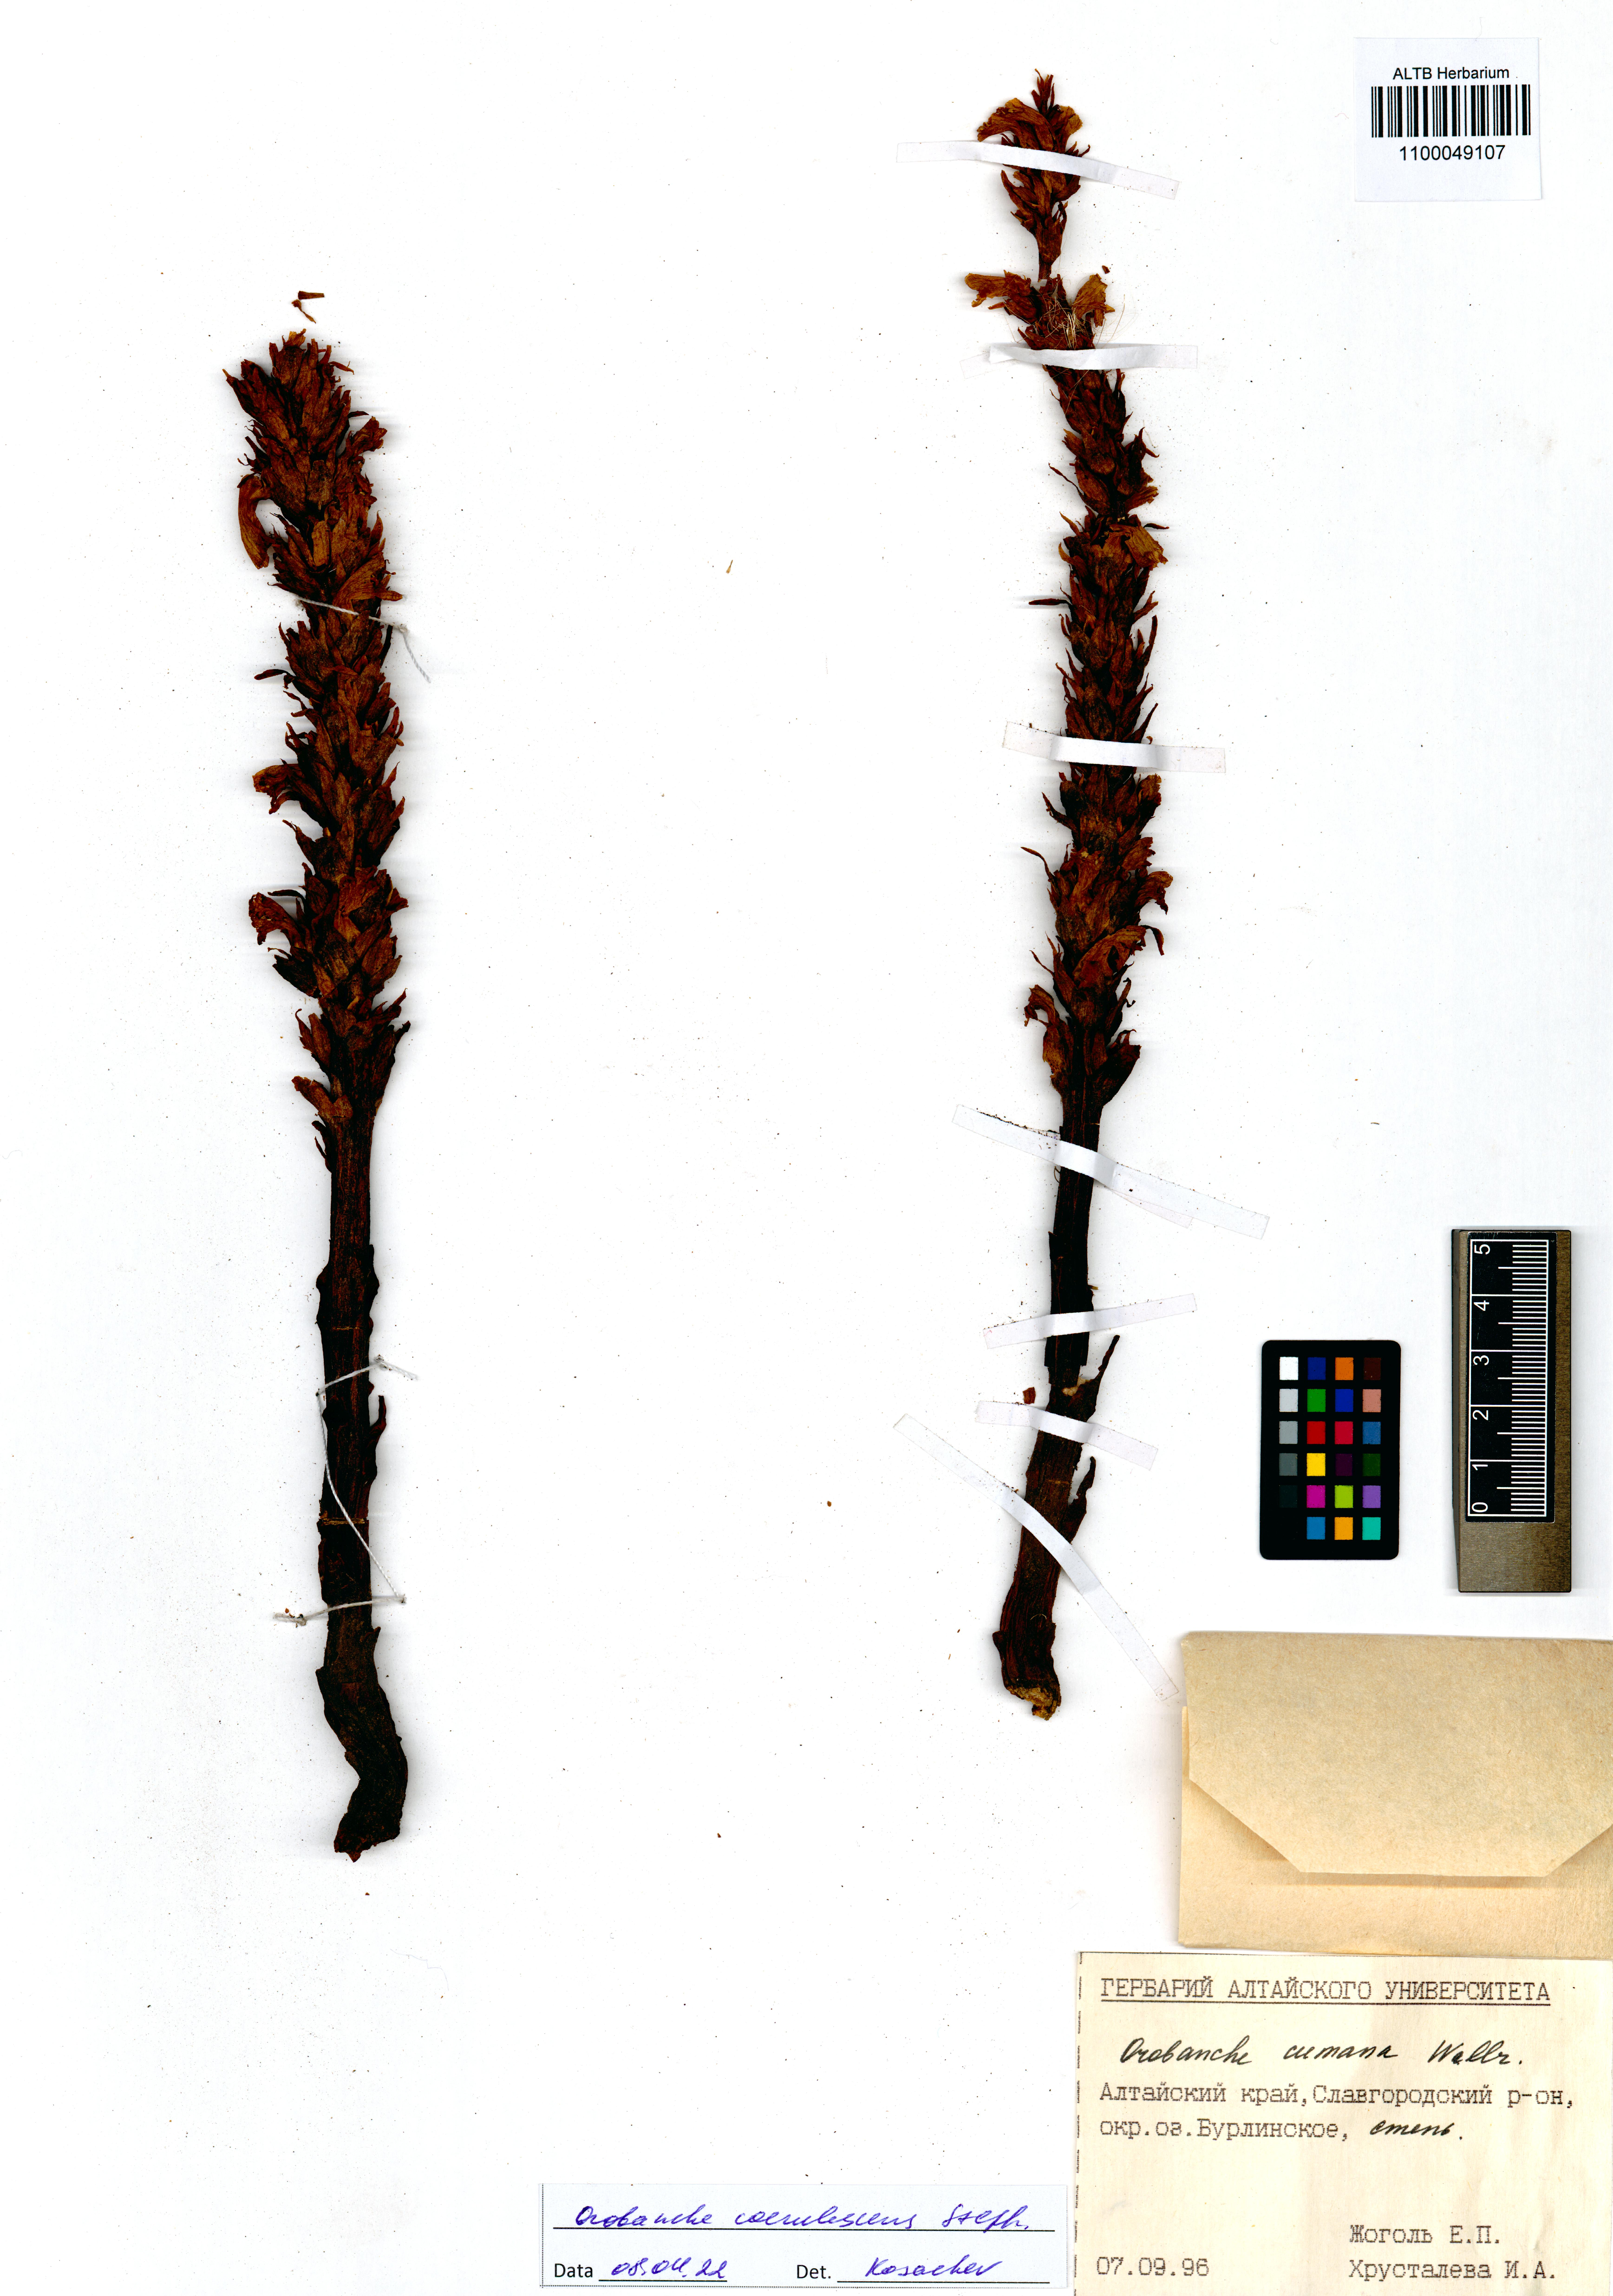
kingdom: Plantae
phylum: Tracheophyta
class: Magnoliopsida
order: Lamiales
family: Orobanchaceae
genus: Orobanche
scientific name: Orobanche coerulescens
